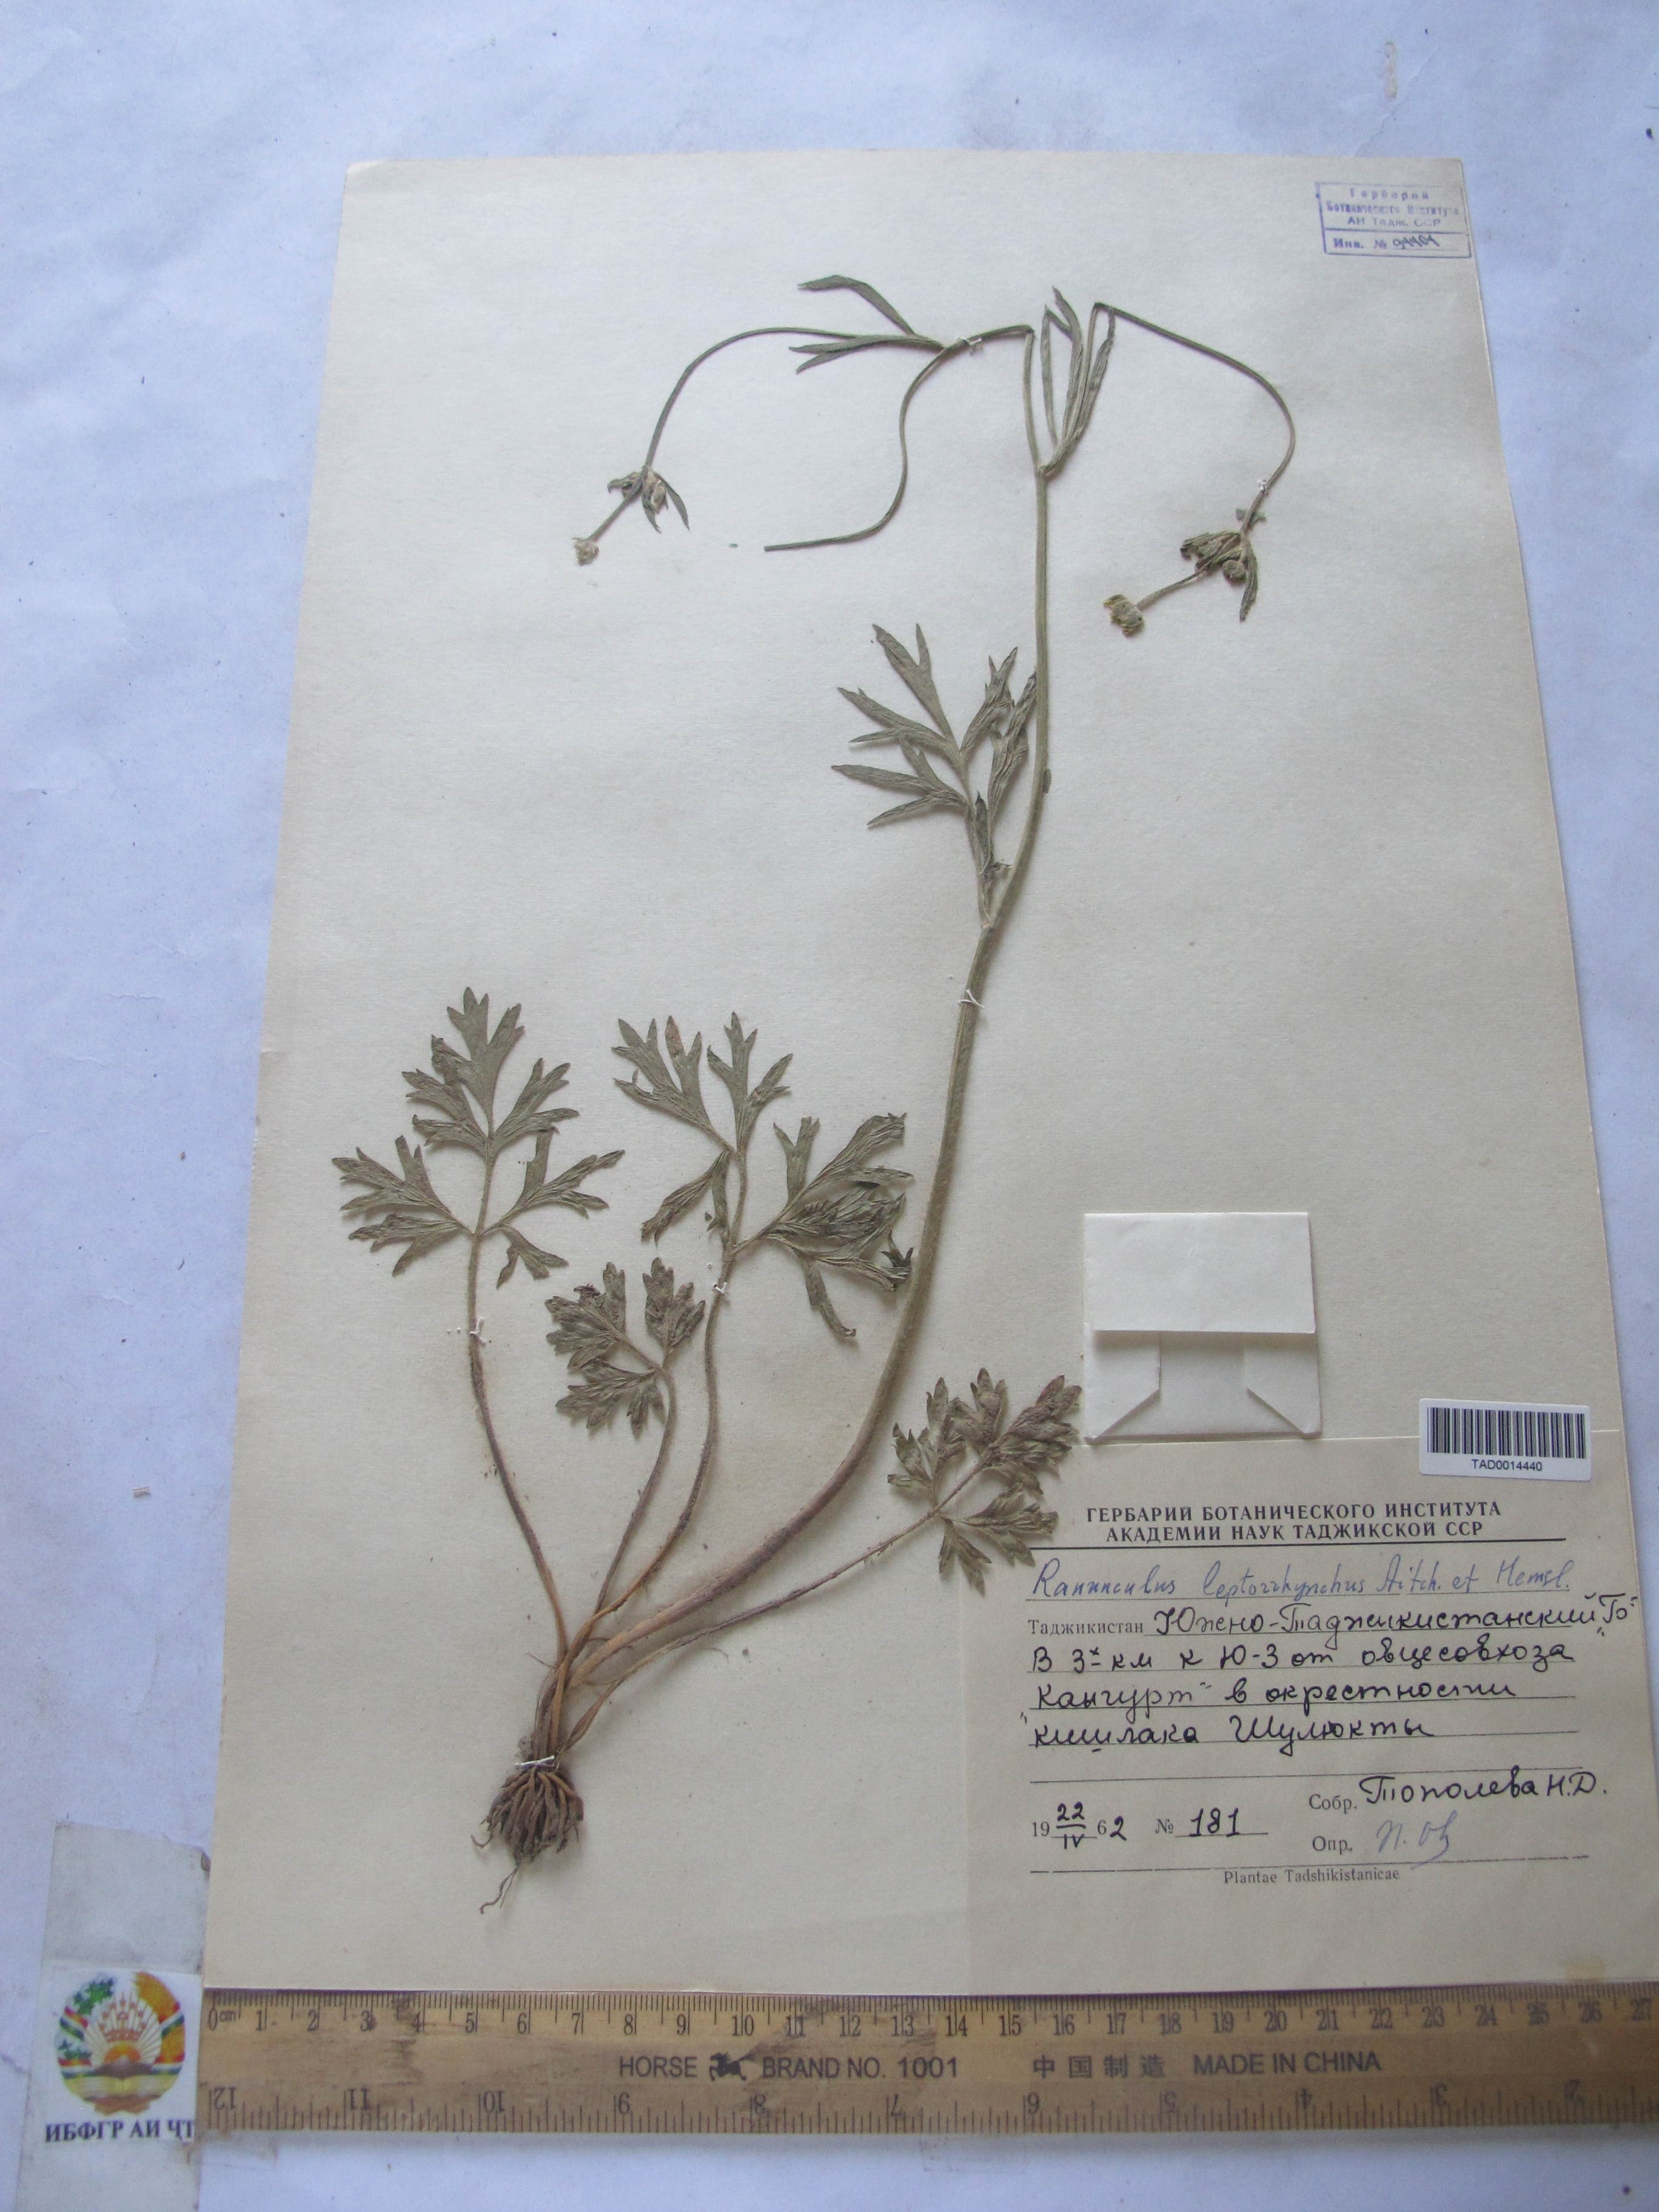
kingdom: Plantae
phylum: Tracheophyta
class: Magnoliopsida
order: Ranunculales
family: Ranunculaceae
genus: Ranunculus
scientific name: Ranunculus leptorrhynchus
